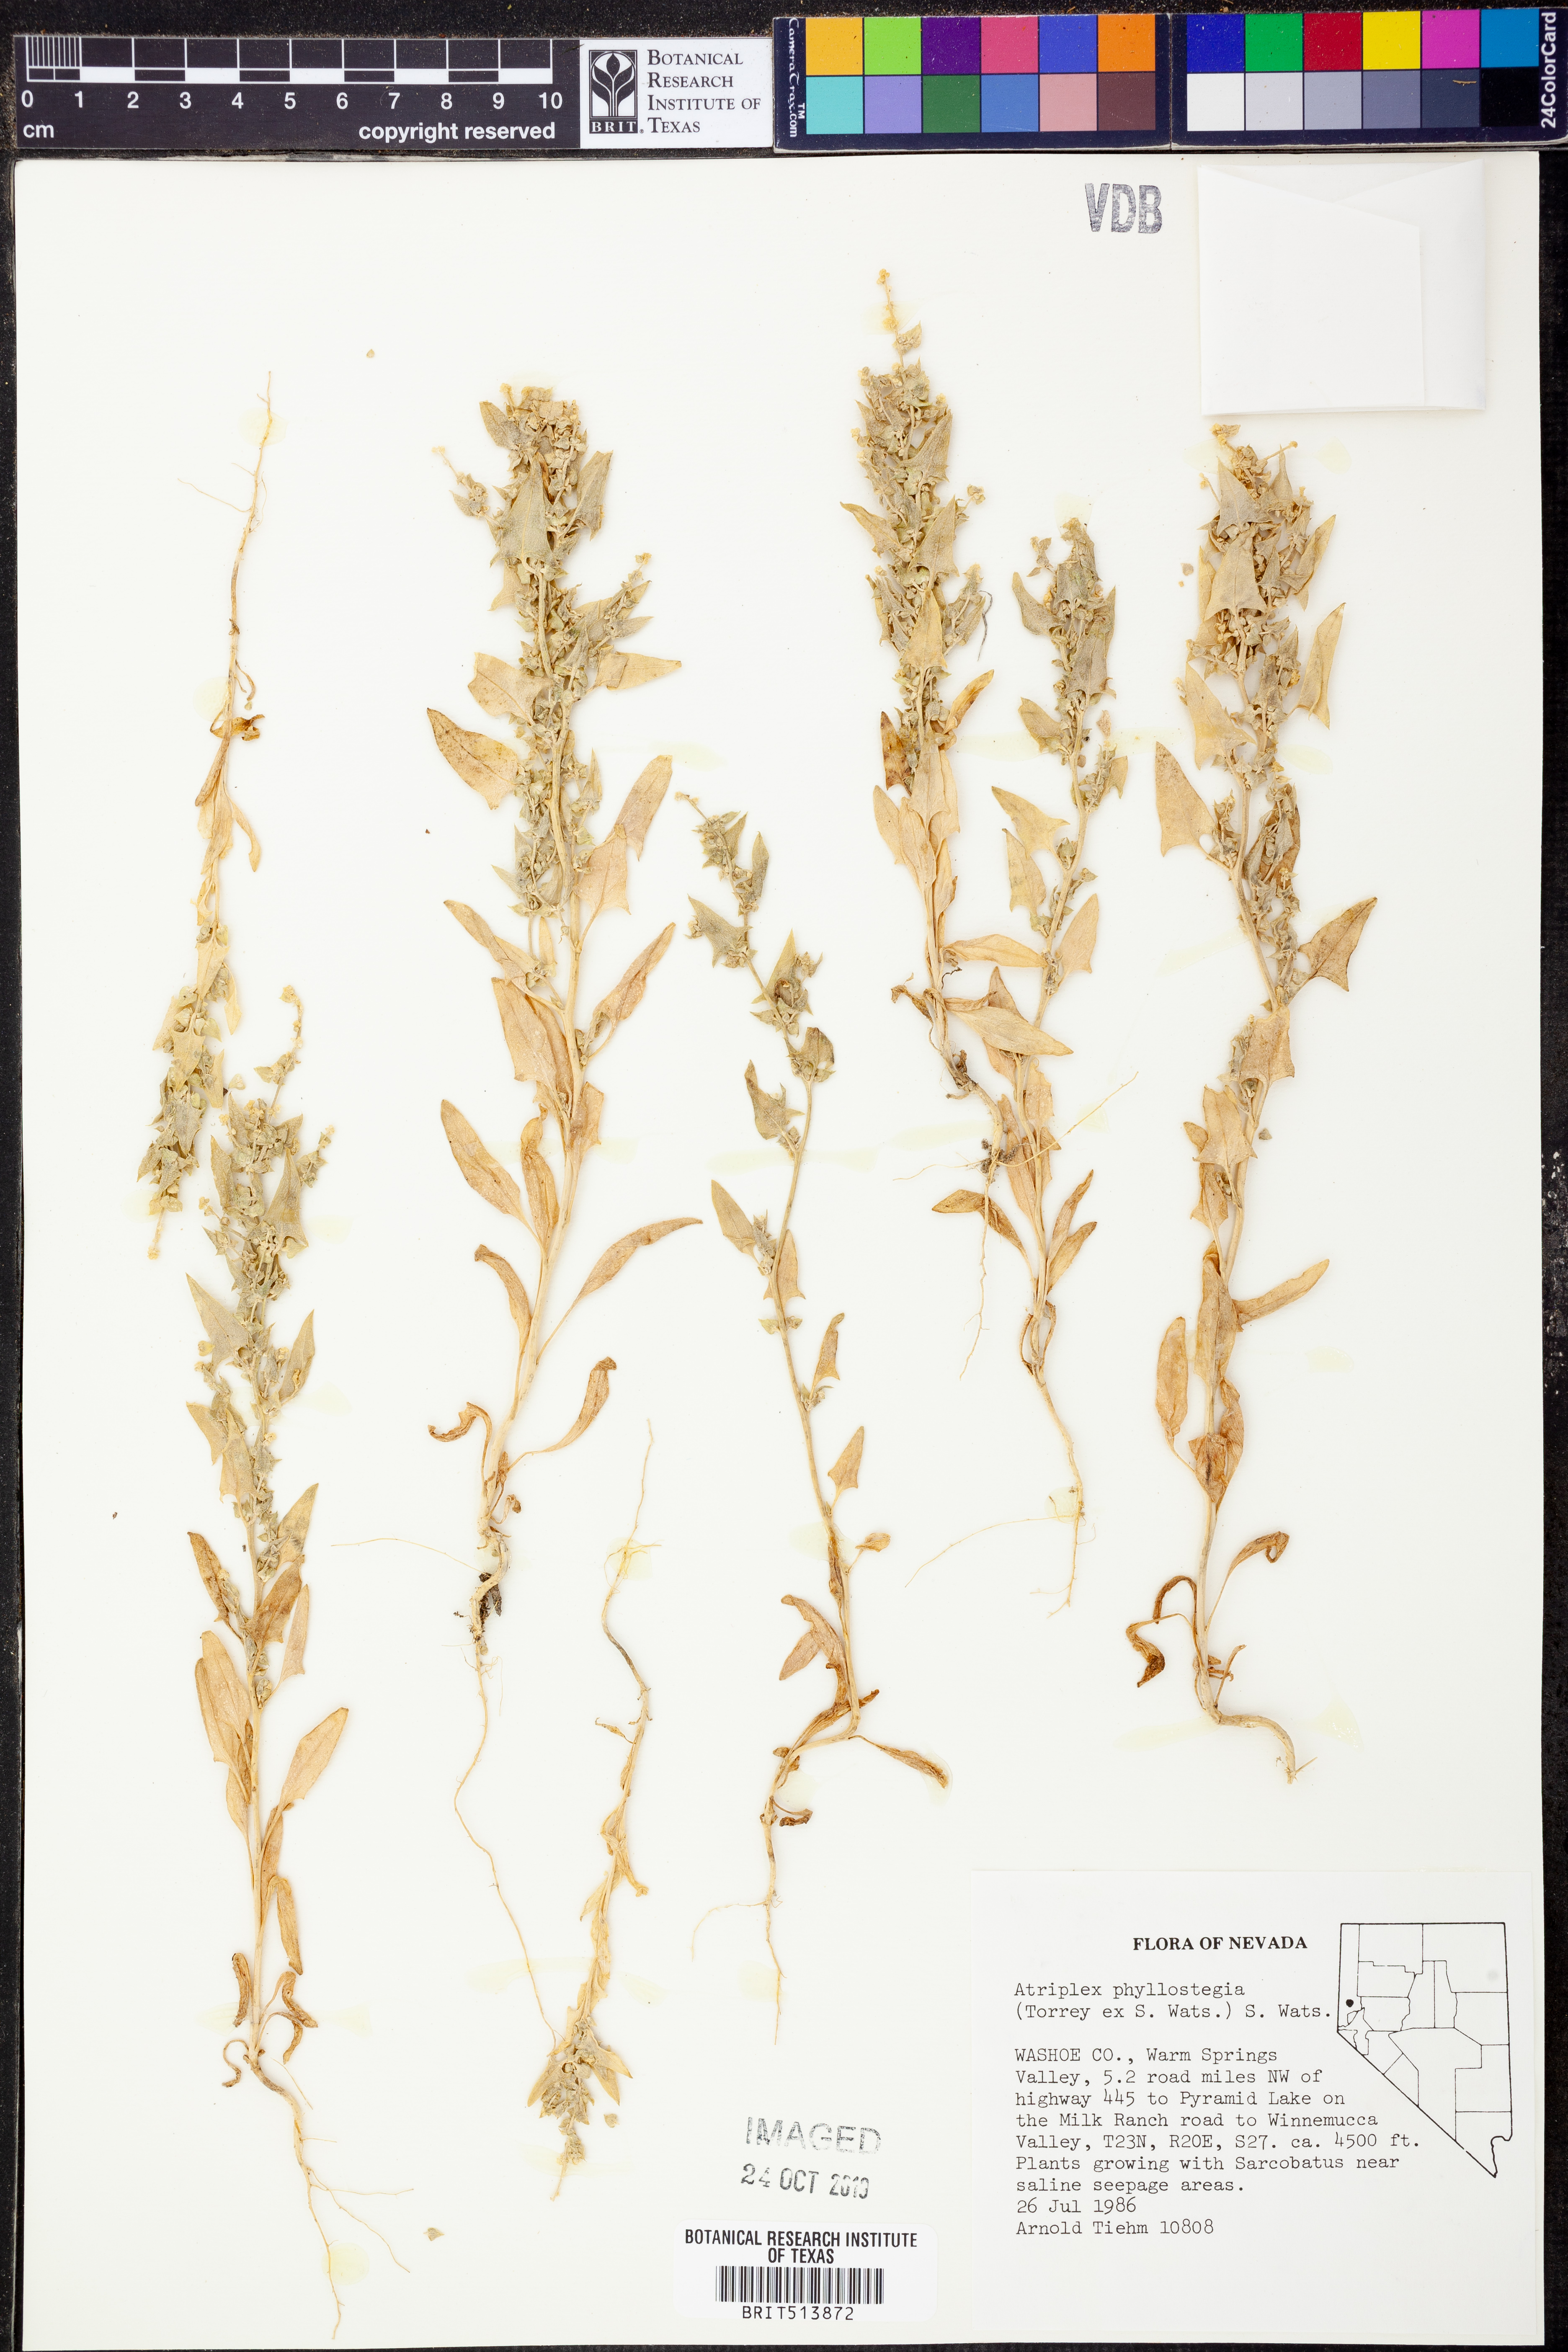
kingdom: Plantae
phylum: Tracheophyta
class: Magnoliopsida
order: Caryophyllales
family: Amaranthaceae
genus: Atriplex
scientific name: Atriplex phyllostegia
